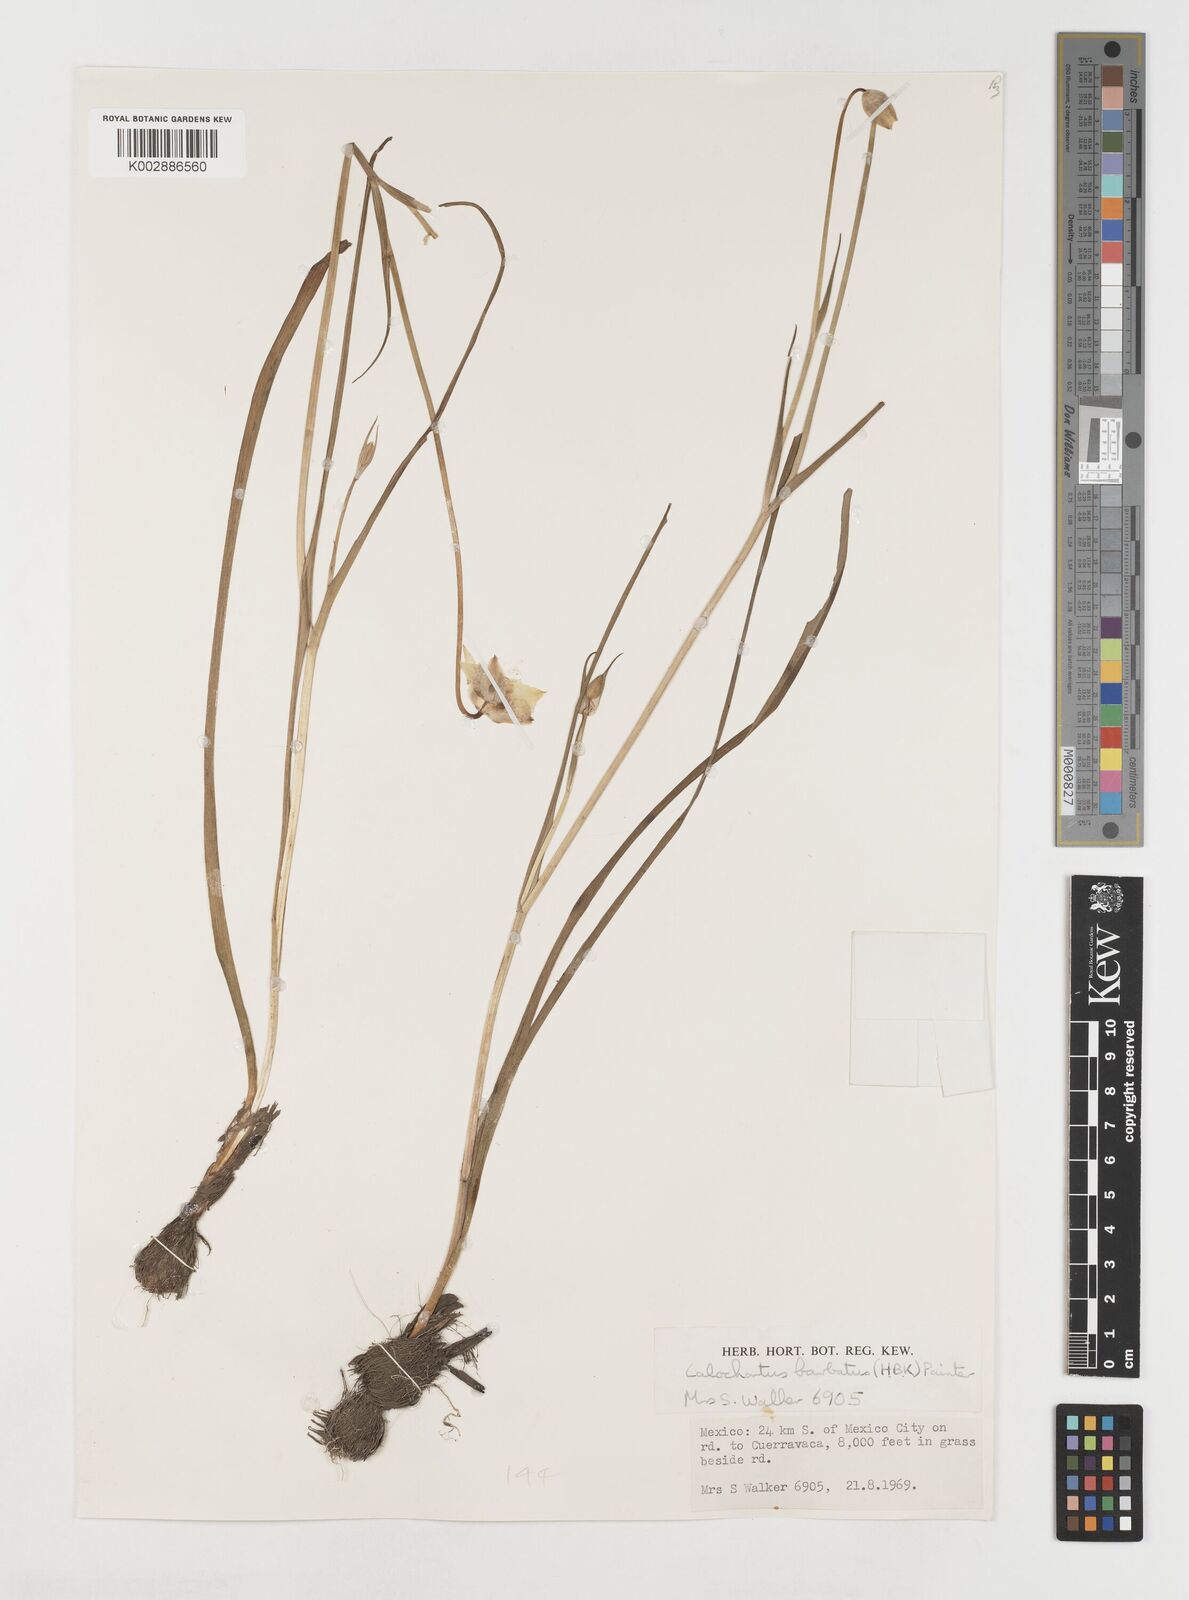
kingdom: Plantae
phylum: Tracheophyta
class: Liliopsida
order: Liliales
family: Liliaceae
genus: Calochortus
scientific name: Calochortus barbatus
